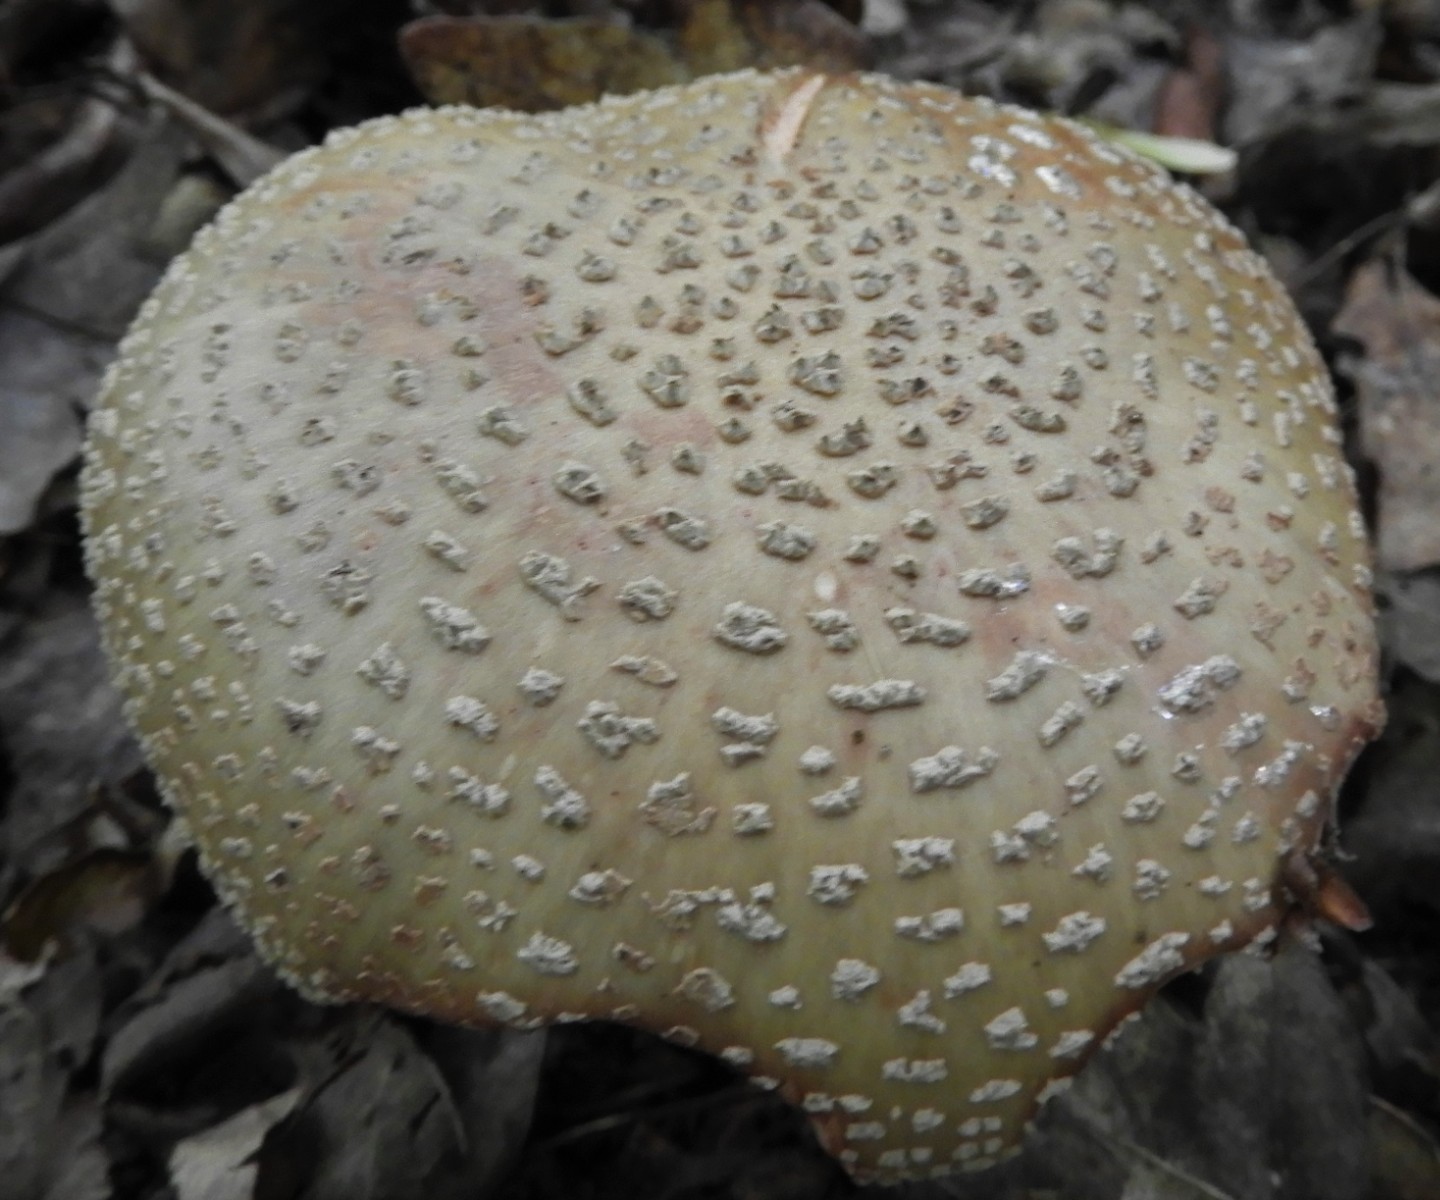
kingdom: Fungi
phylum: Basidiomycota
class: Agaricomycetes
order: Agaricales
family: Amanitaceae
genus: Amanita
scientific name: Amanita rubescens
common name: rødmende fluesvamp
